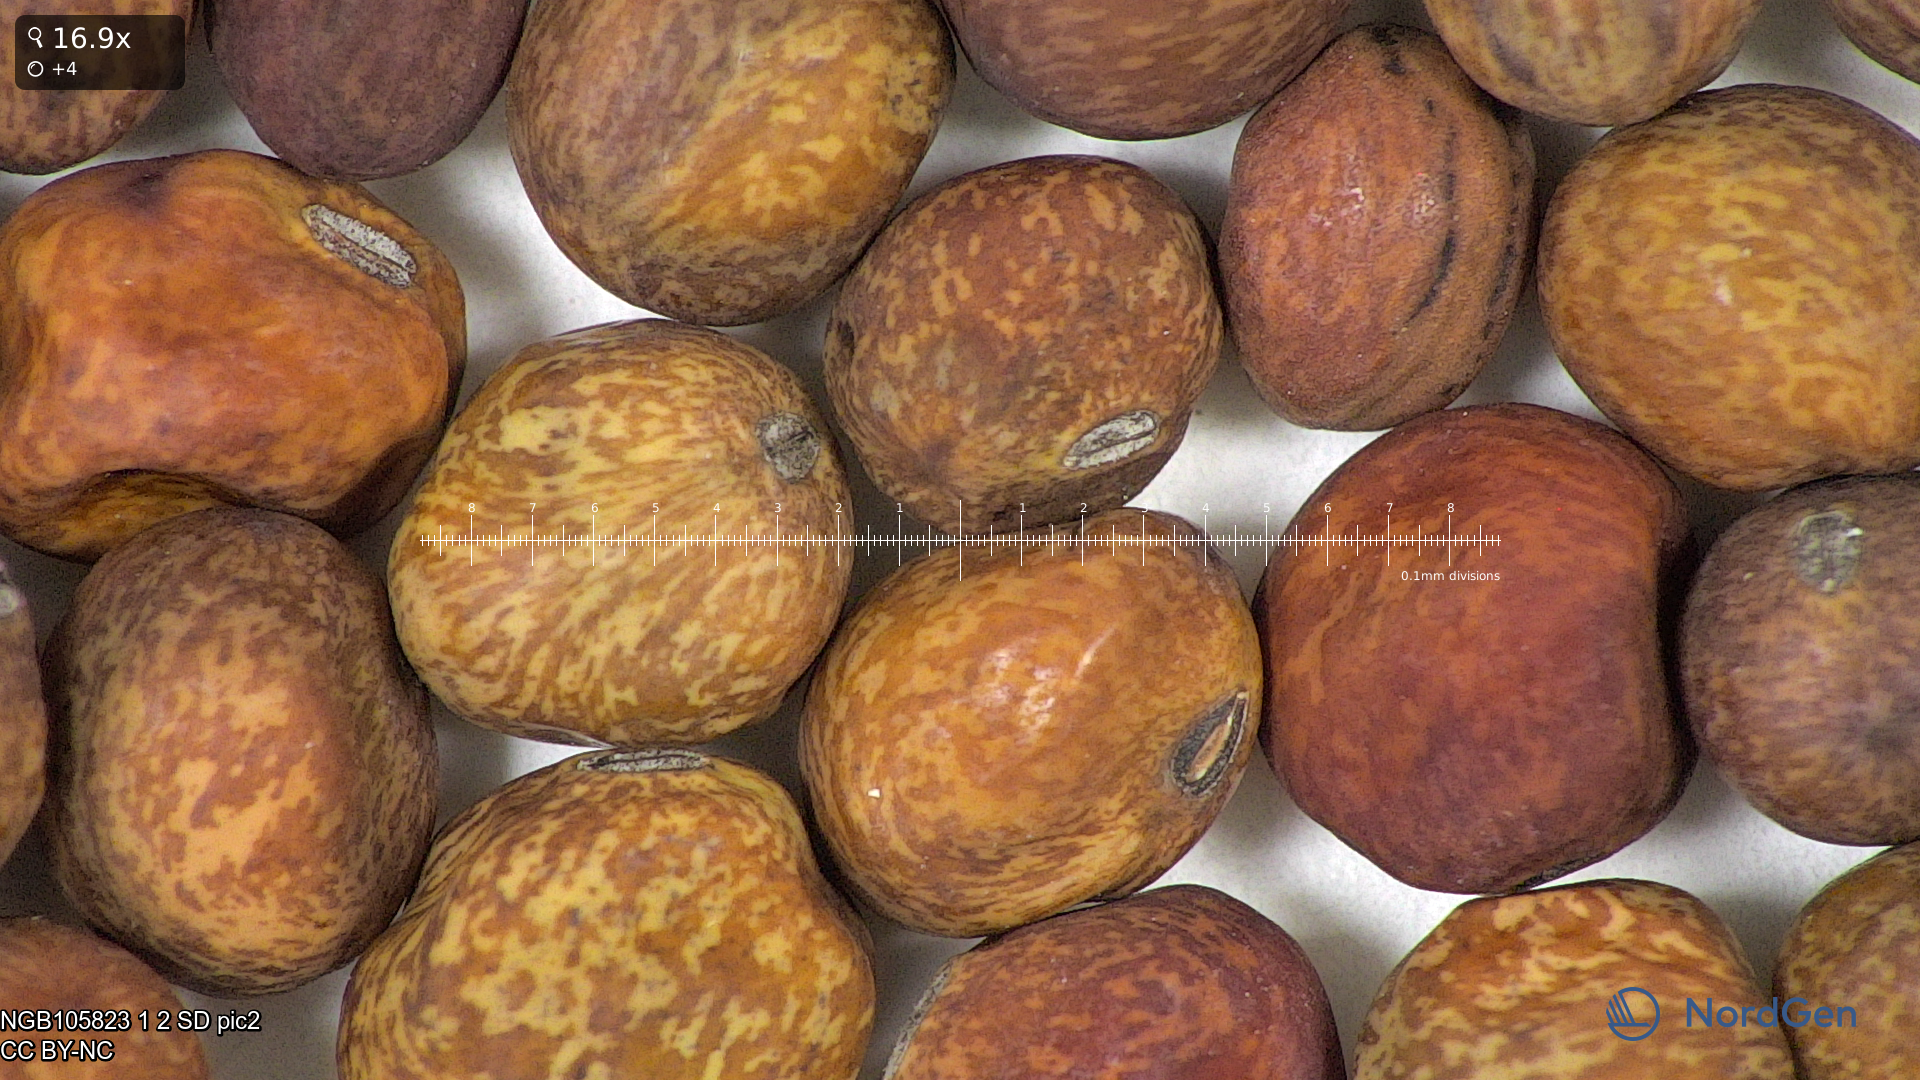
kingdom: Plantae
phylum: Tracheophyta
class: Magnoliopsida
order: Fabales
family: Fabaceae
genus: Lathyrus
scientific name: Lathyrus oleraceus
